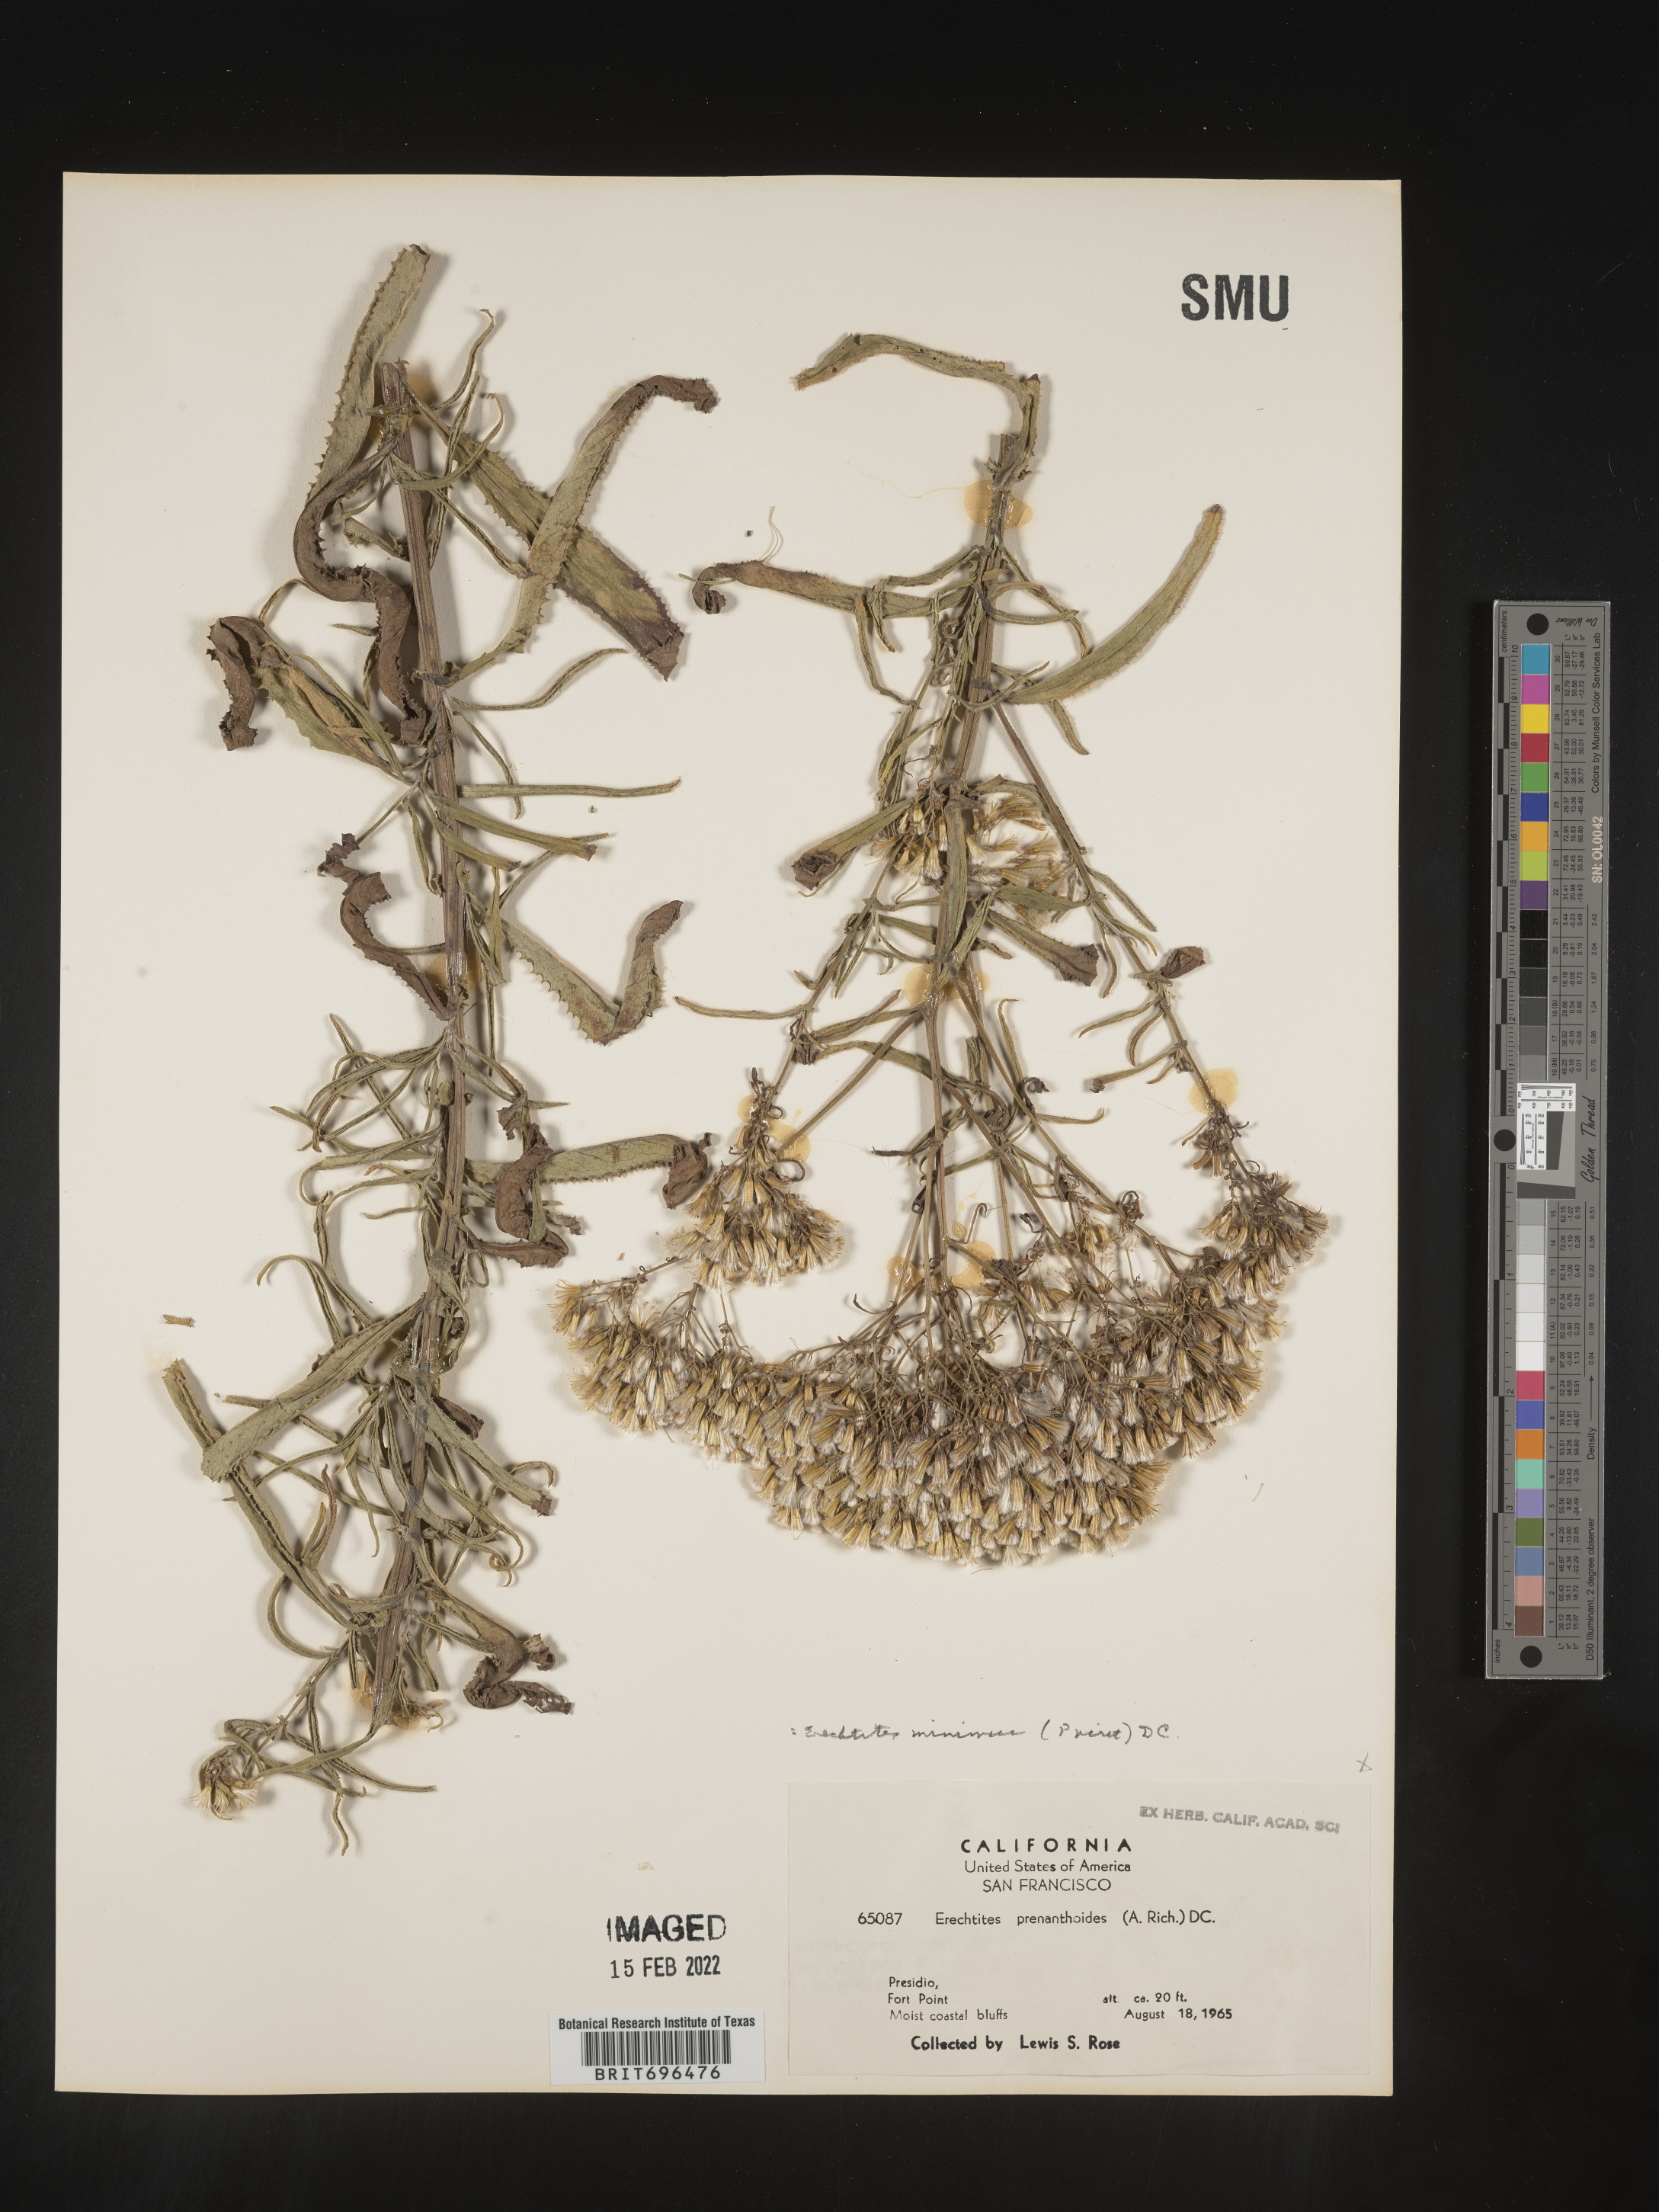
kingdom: Plantae
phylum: Tracheophyta
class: Magnoliopsida
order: Asterales
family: Asteraceae
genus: Senecio
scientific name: Senecio minimus
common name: Toothed fireweed
